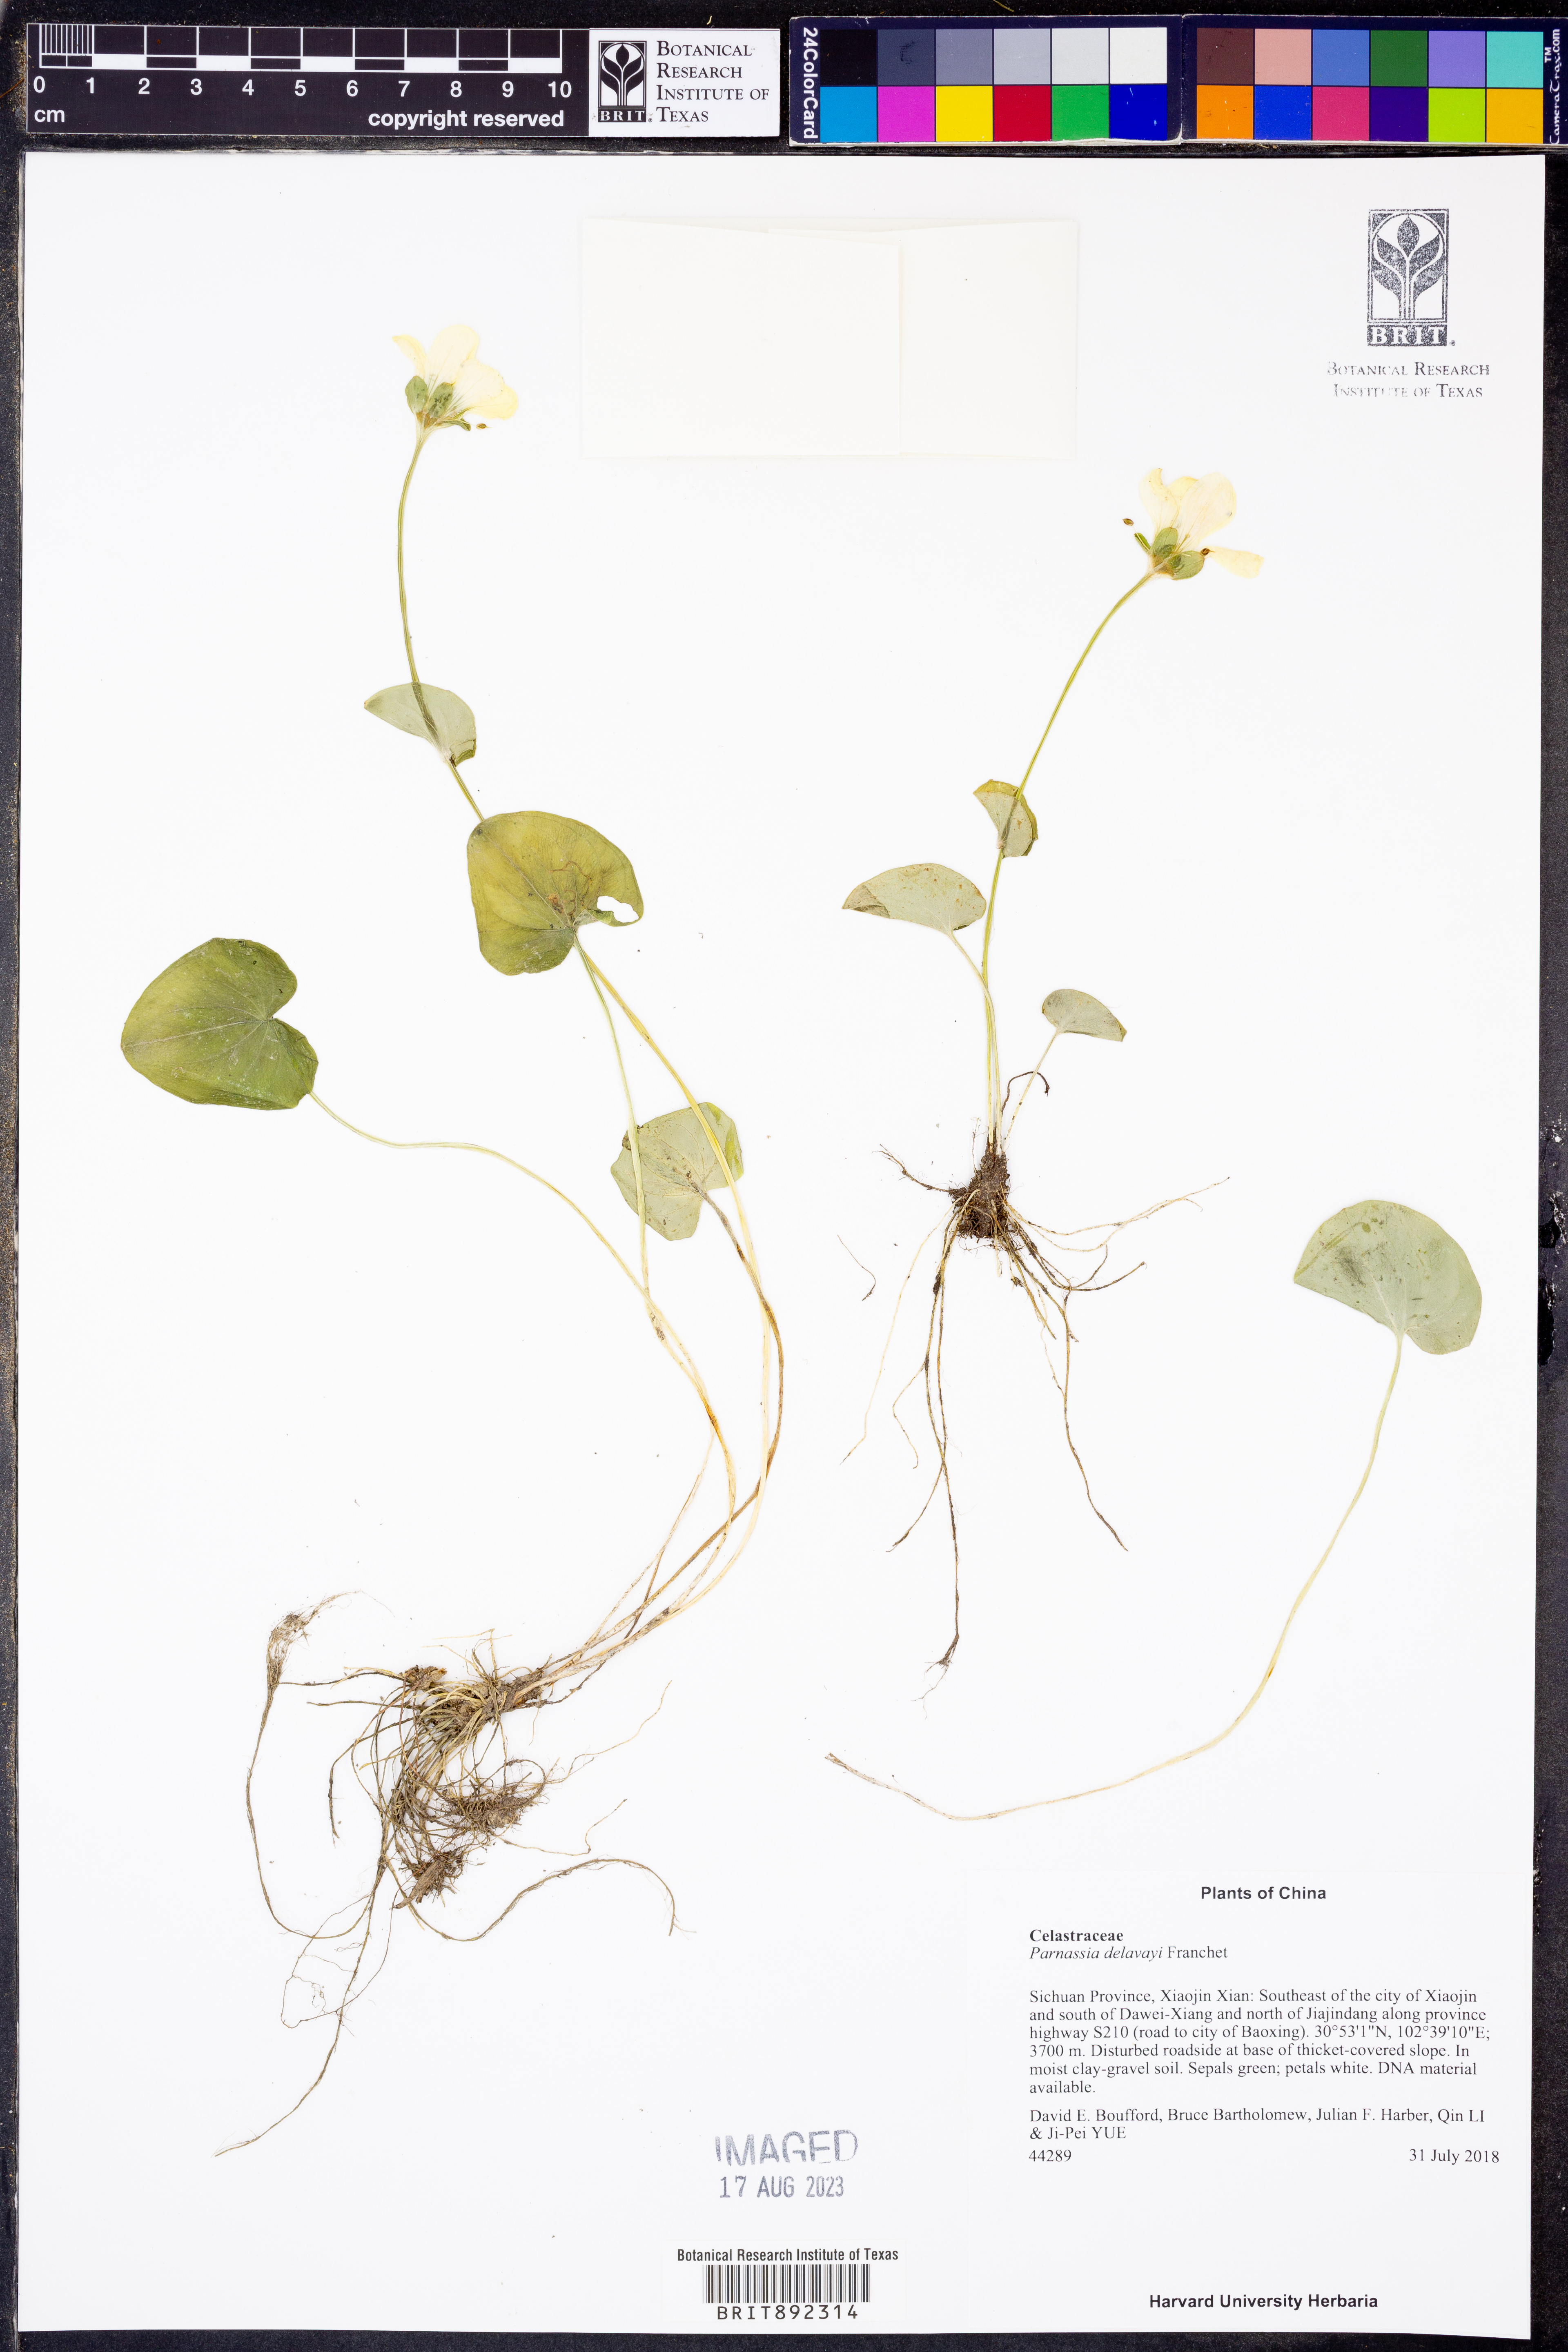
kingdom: Plantae
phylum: Tracheophyta
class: Magnoliopsida
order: Celastrales
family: Parnassiaceae
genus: Parnassia
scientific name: Parnassia delavayi
